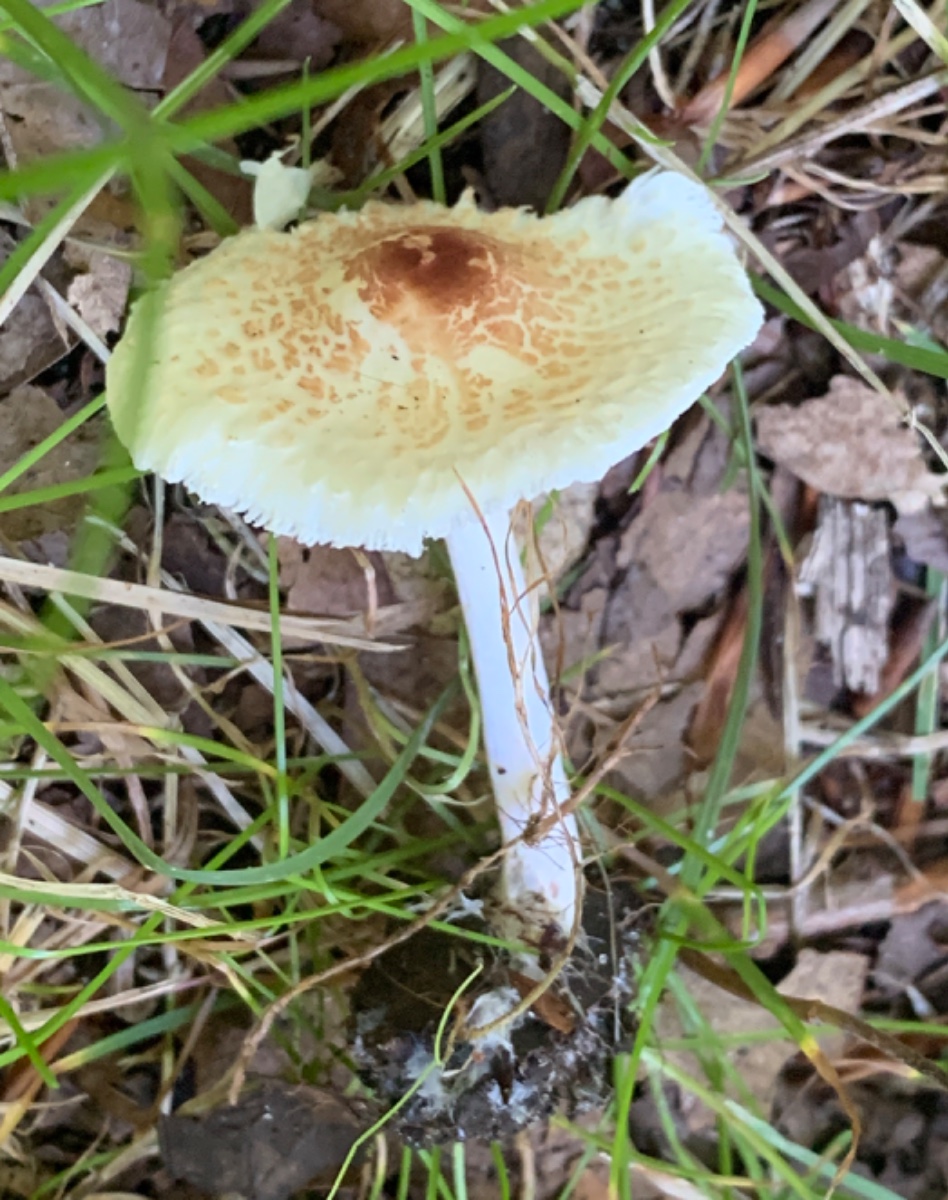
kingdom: Fungi
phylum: Basidiomycota
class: Agaricomycetes
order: Agaricales
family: Agaricaceae
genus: Lepiota
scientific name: Lepiota cristata
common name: stinkende parasolhat
